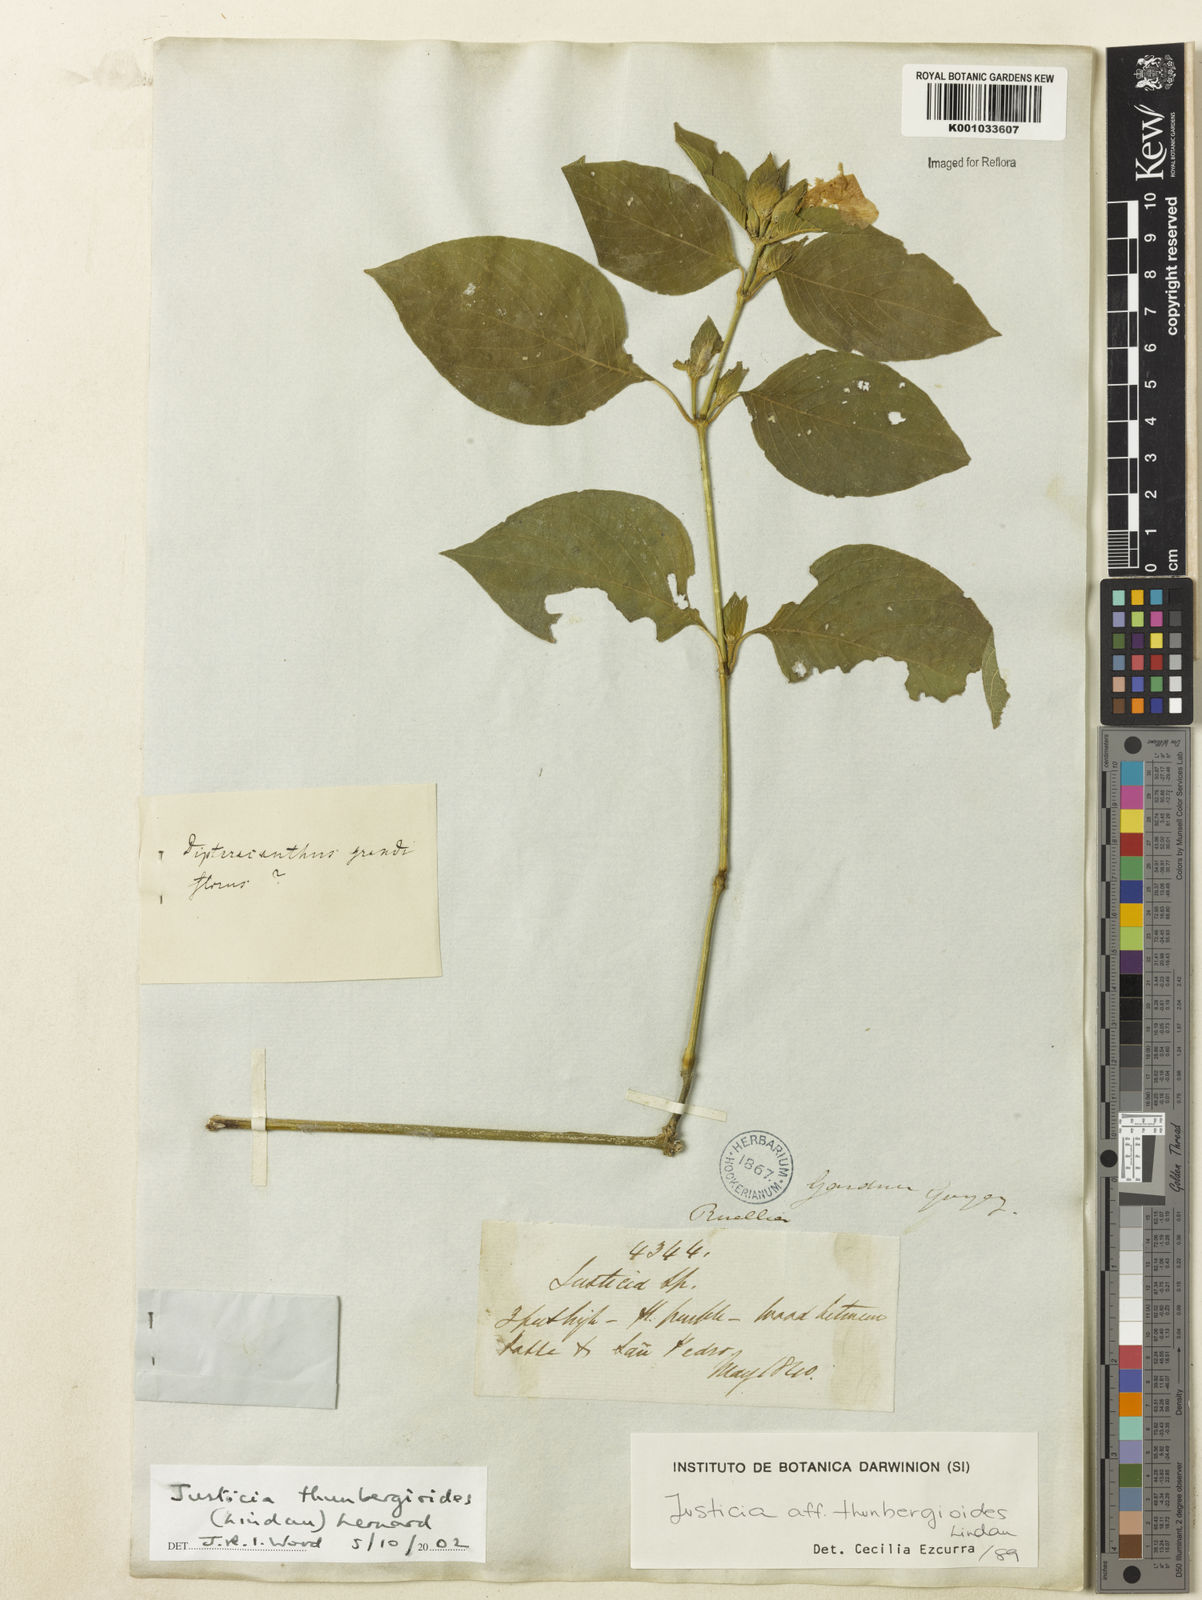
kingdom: Plantae
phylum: Tracheophyta
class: Magnoliopsida
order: Lamiales
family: Acanthaceae
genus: Justicia
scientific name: Justicia thunbergioides
